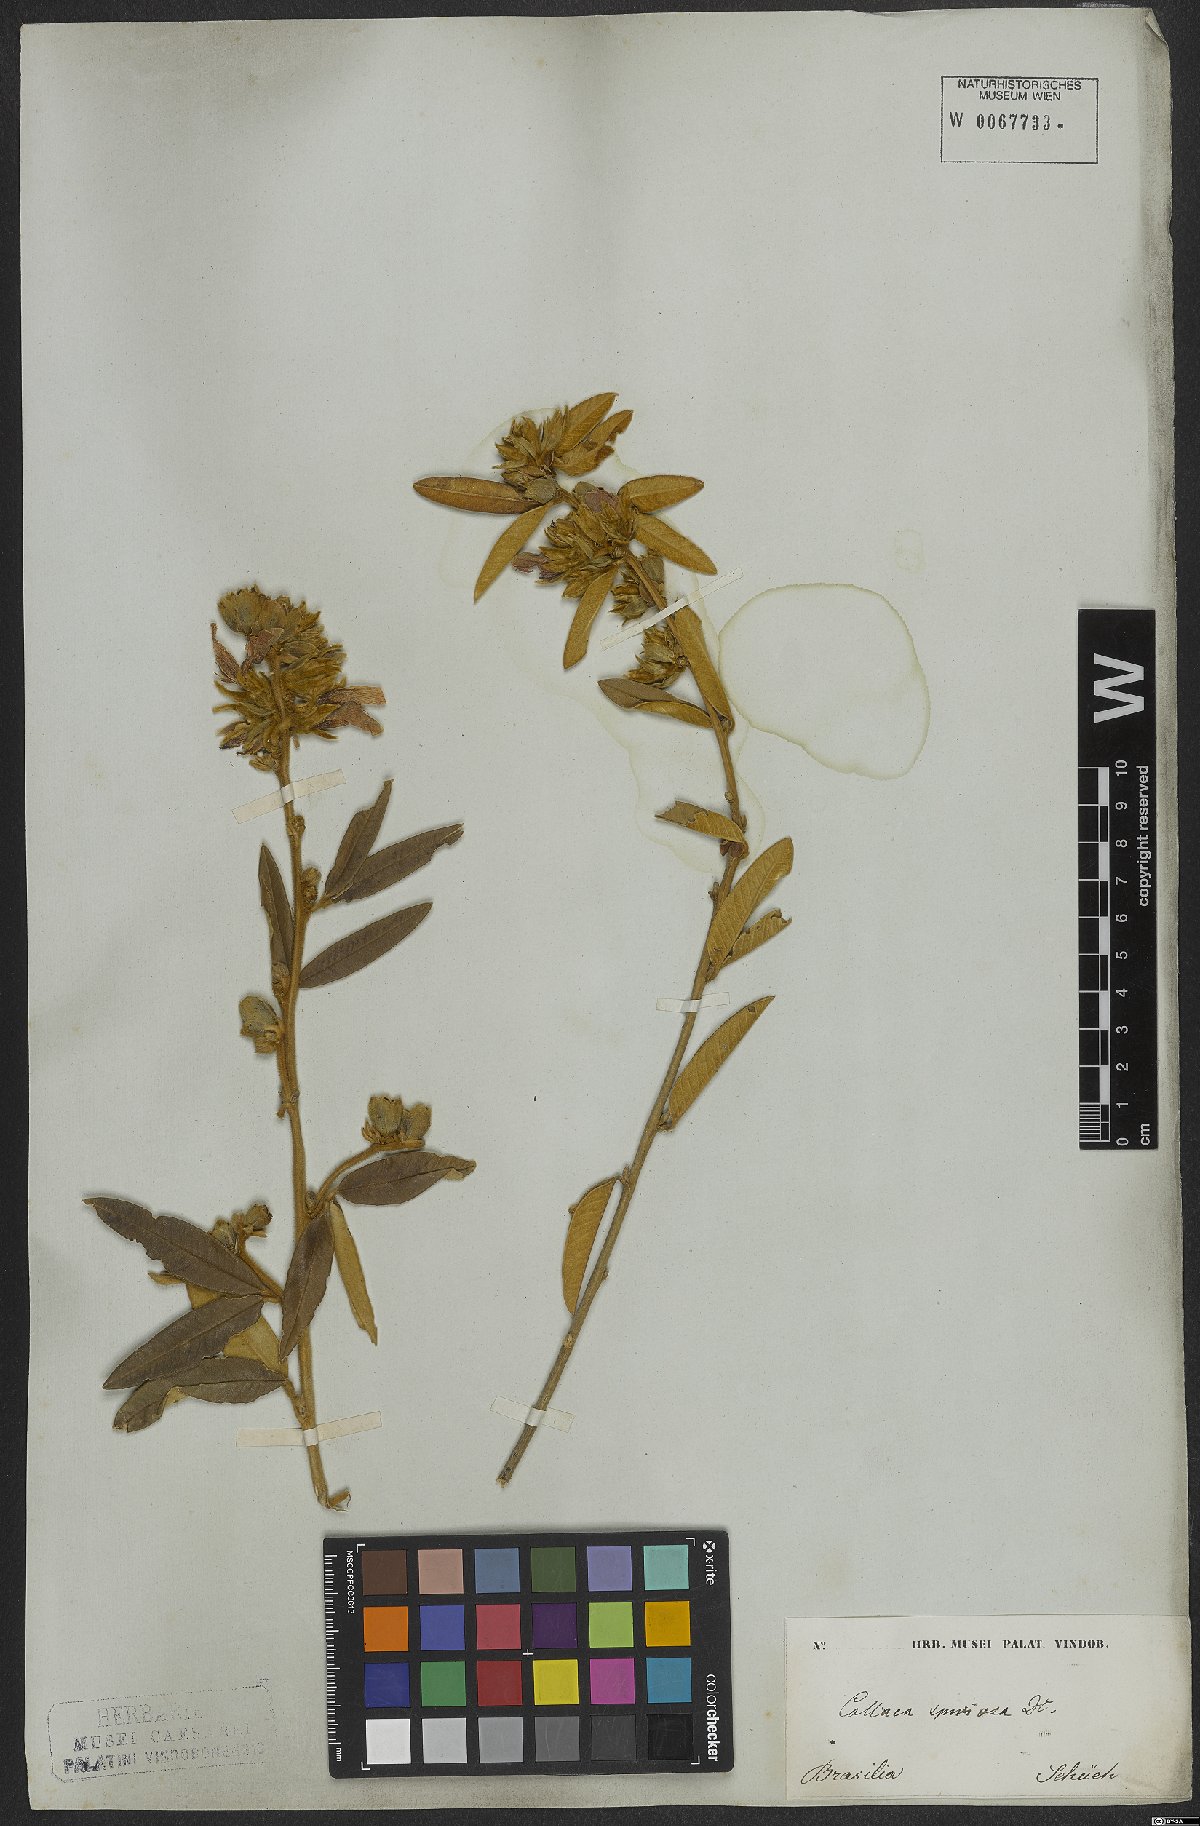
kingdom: Plantae
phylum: Tracheophyta
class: Magnoliopsida
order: Fabales
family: Fabaceae
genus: Collaea
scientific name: Collaea speciosa
